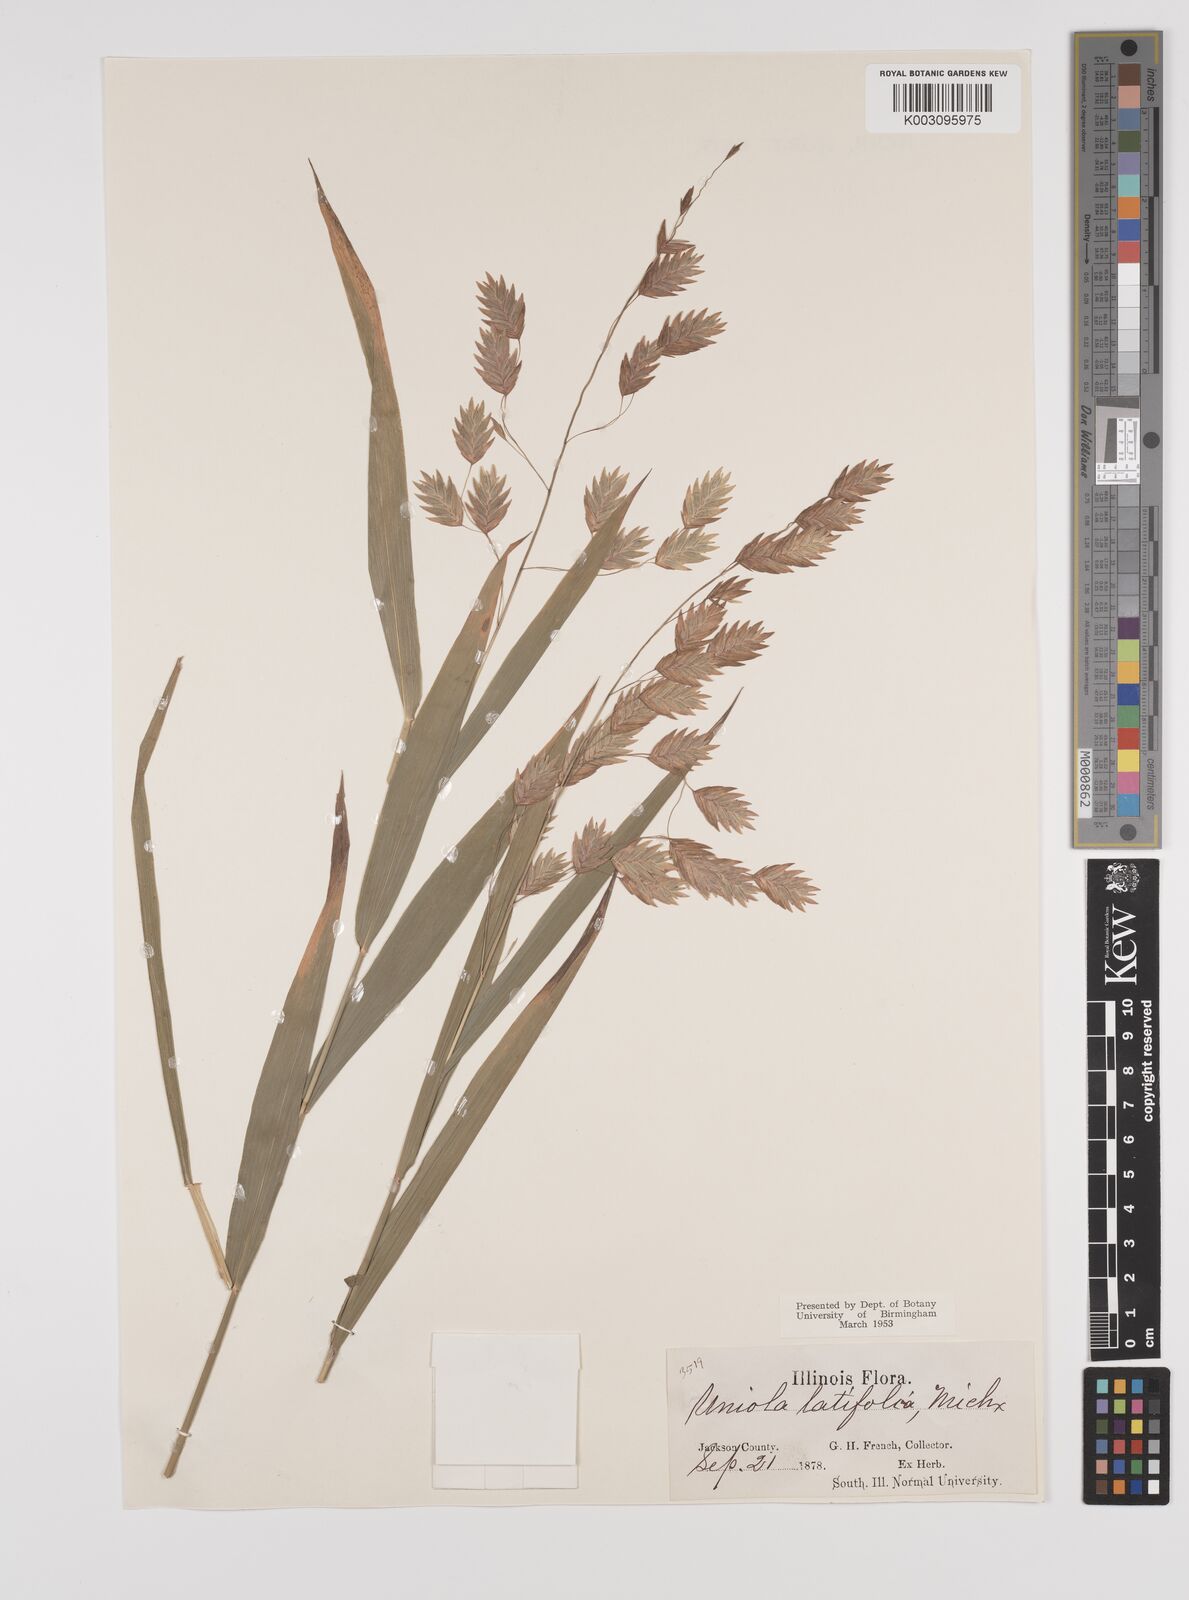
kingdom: Plantae
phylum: Tracheophyta
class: Liliopsida
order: Poales
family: Poaceae
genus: Chasmanthium
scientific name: Chasmanthium latifolium
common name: Broad-leaved chasmanthium
